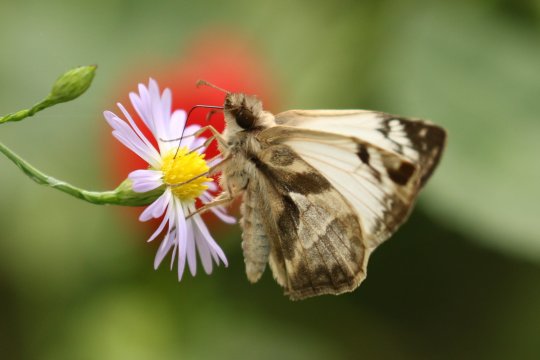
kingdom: Animalia
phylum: Arthropoda
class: Insecta
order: Lepidoptera
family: Hesperiidae
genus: Heliopetes
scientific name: Heliopetes laviana
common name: Laviana White-Skipper
